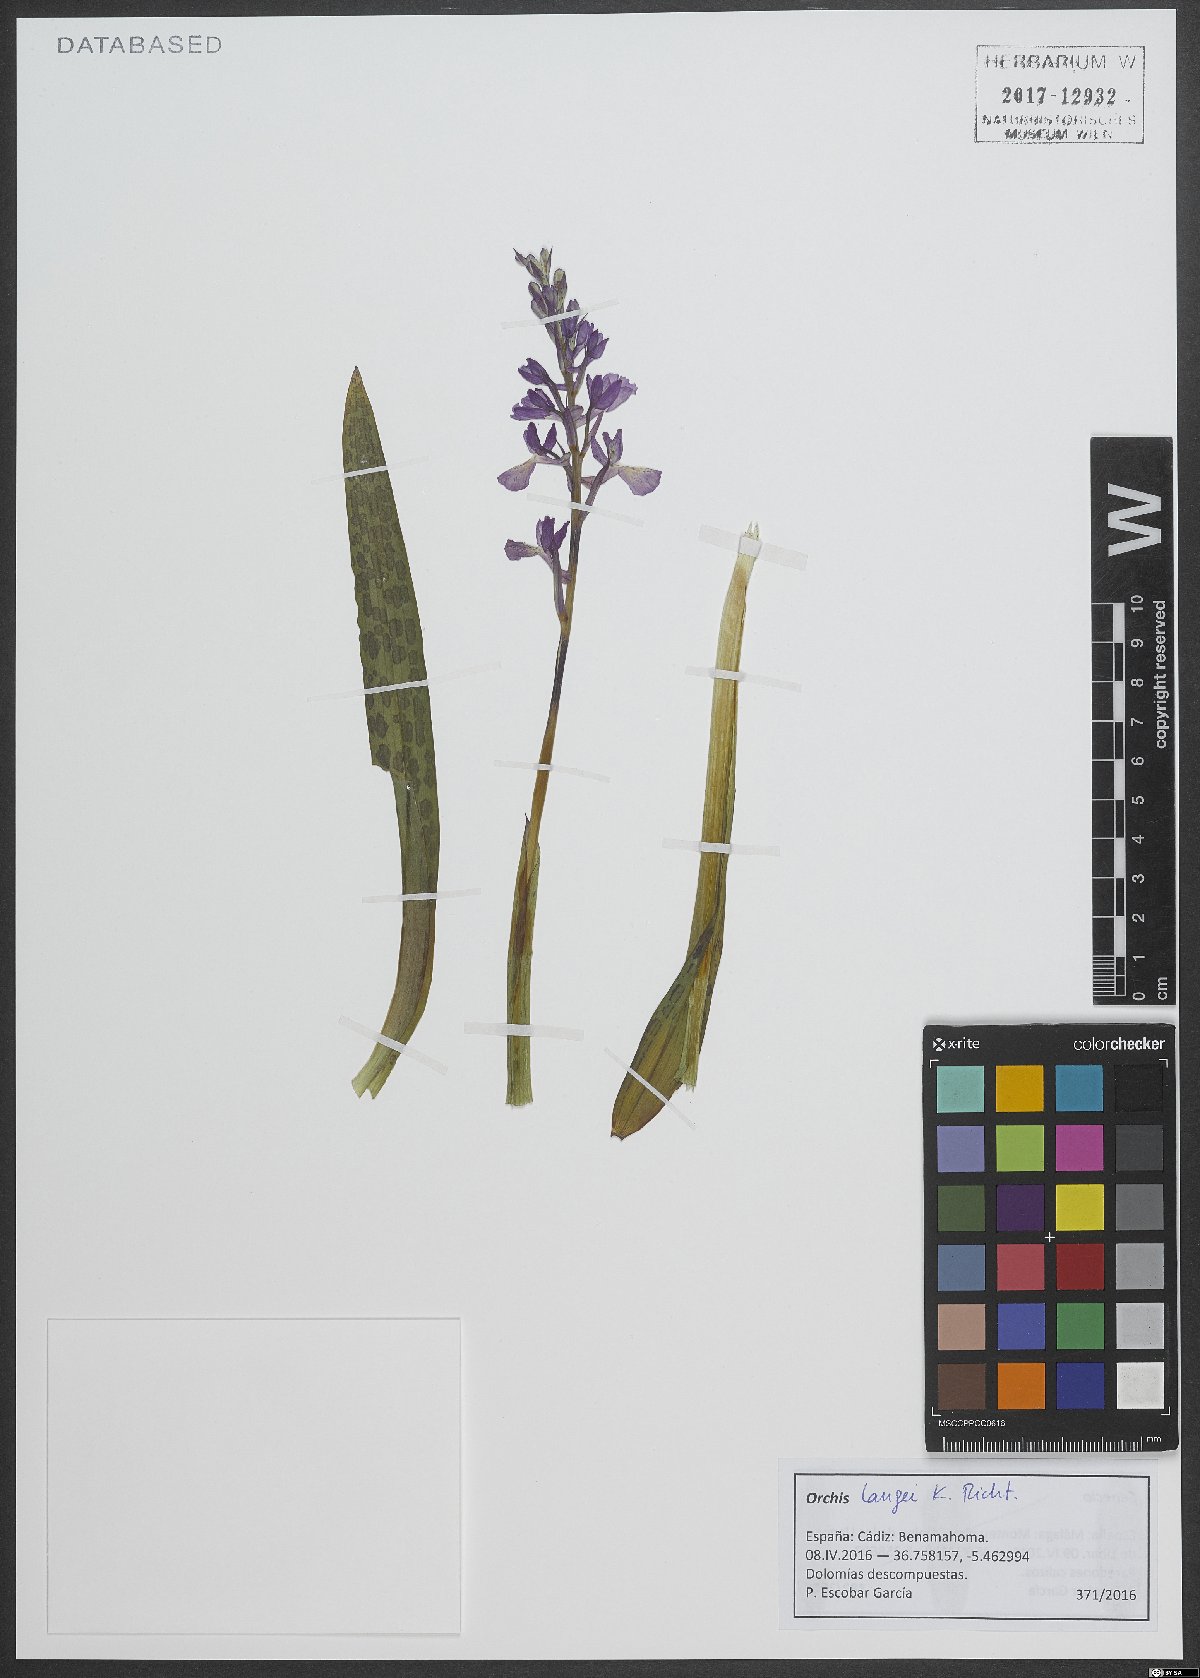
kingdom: Plantae
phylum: Tracheophyta
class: Liliopsida
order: Asparagales
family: Orchidaceae
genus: Orchis
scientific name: Orchis mascula
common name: Early-purple orchid
